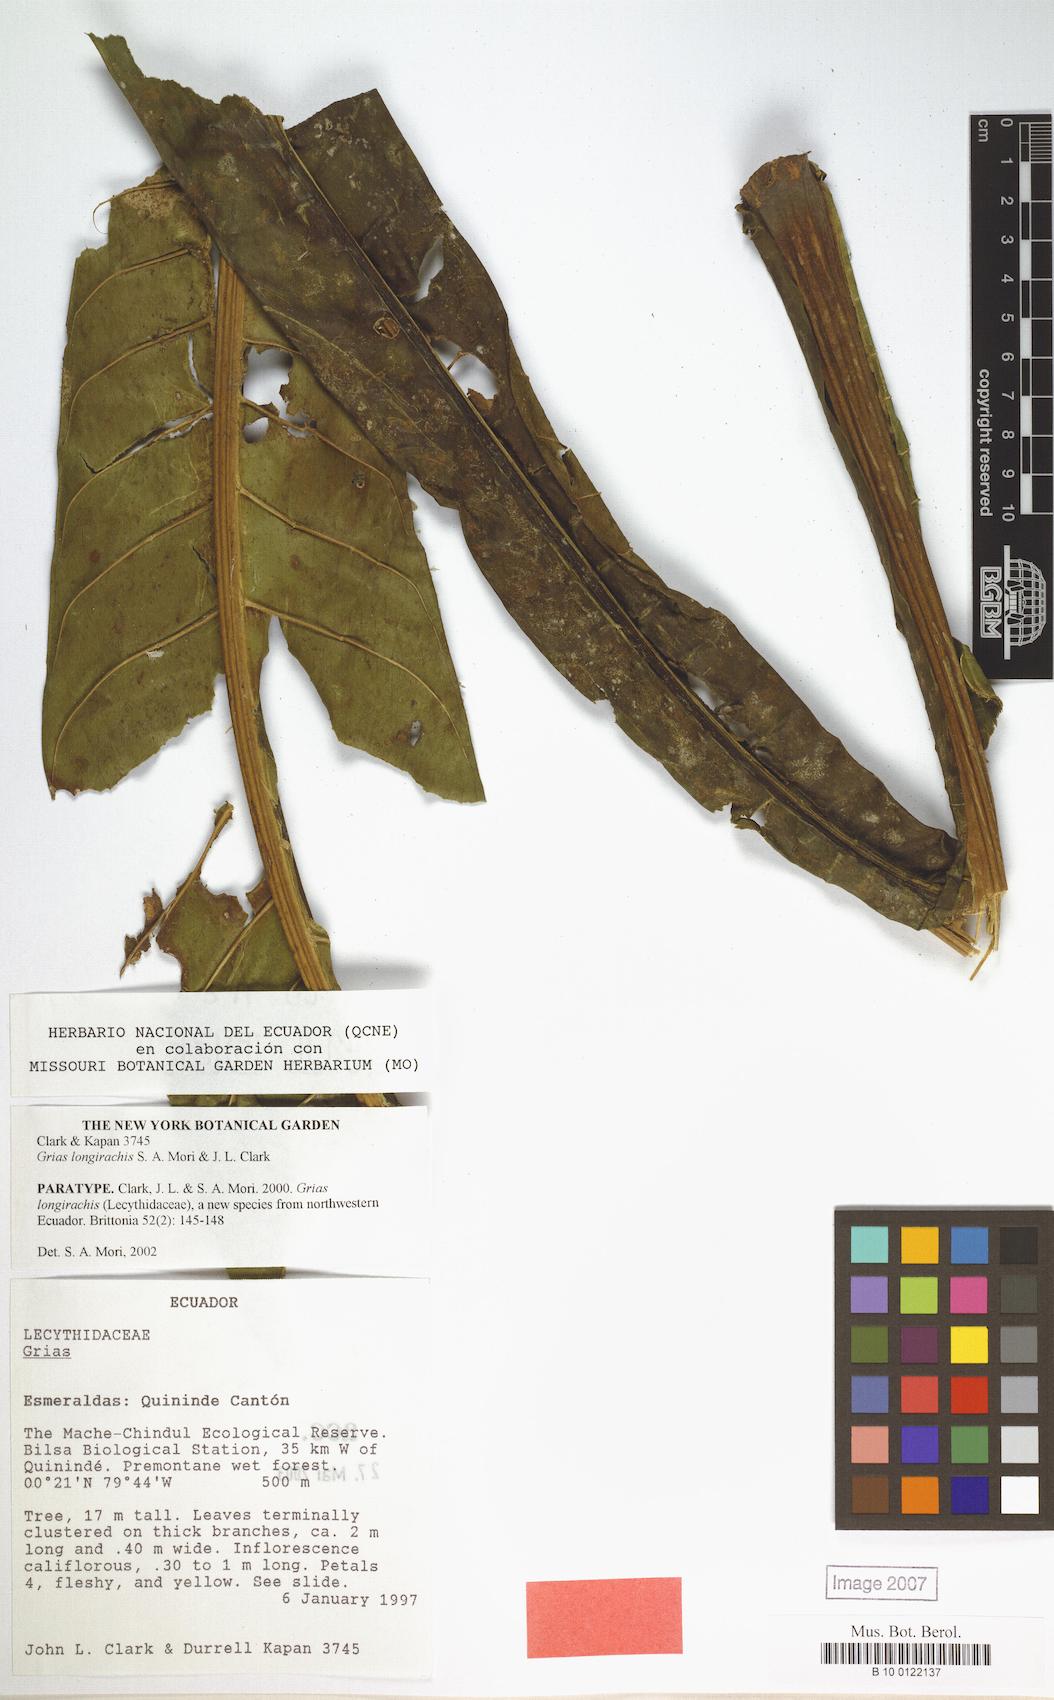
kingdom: Plantae
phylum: Tracheophyta
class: Magnoliopsida
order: Ericales
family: Lecythidaceae
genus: Grias
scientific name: Grias longirachis
